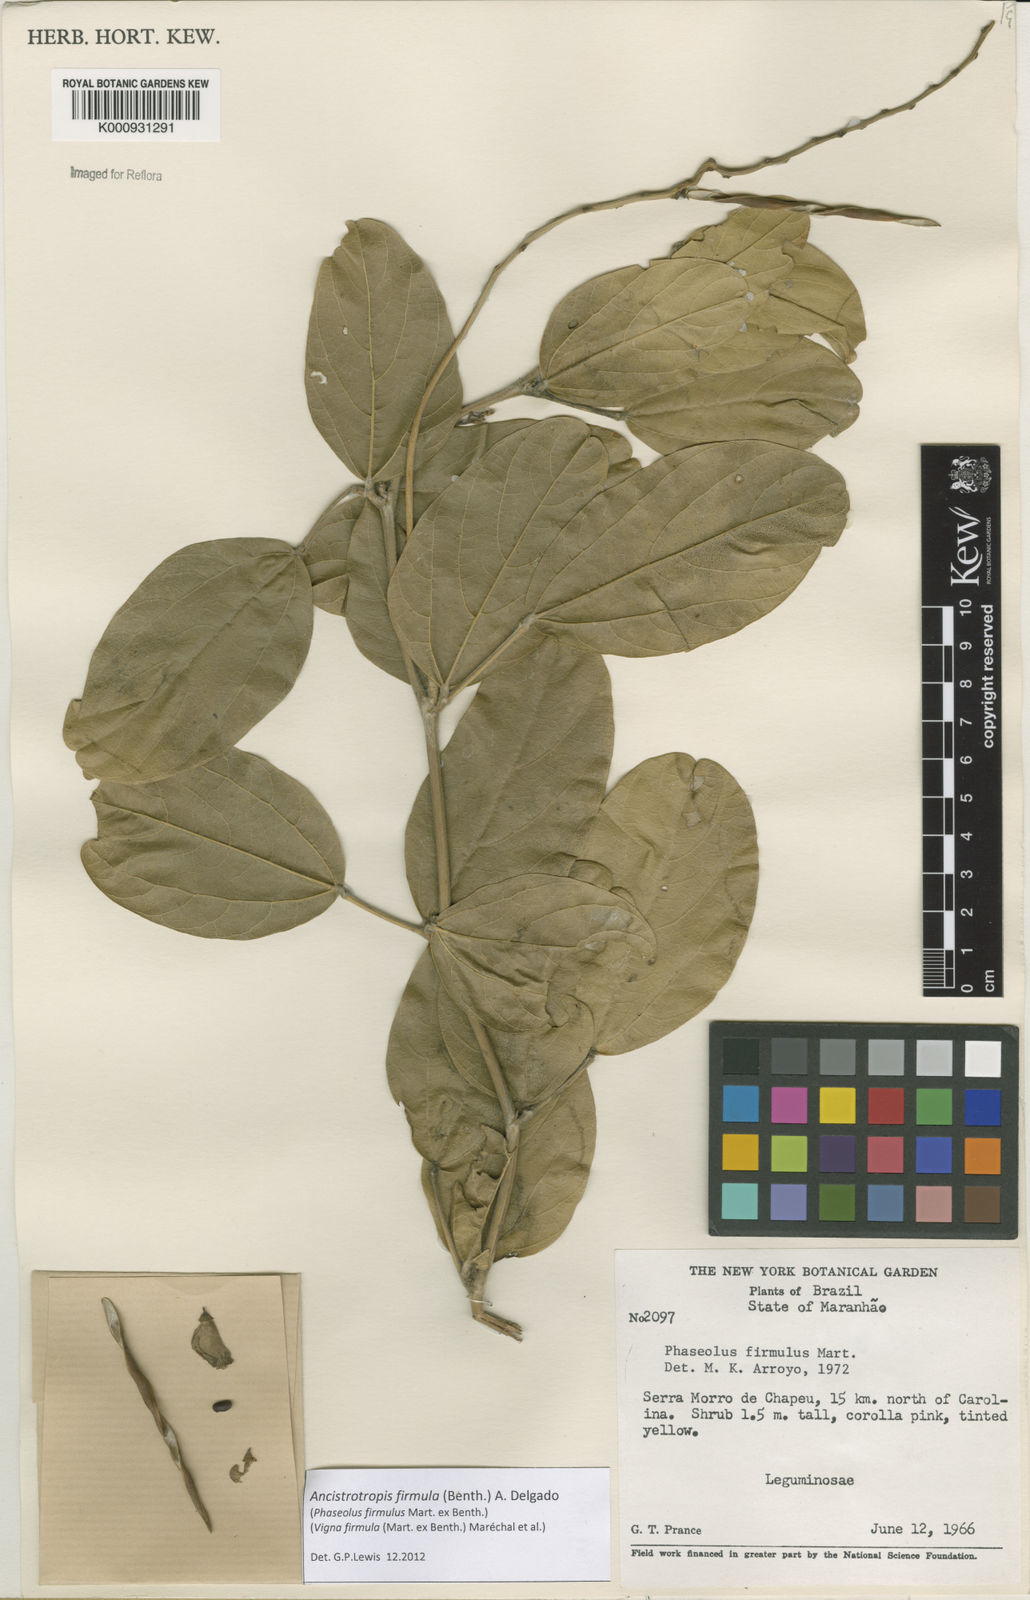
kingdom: Plantae
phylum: Tracheophyta
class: Magnoliopsida
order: Fabales
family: Fabaceae
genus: Ancistrotropis
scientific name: Ancistrotropis firmula
